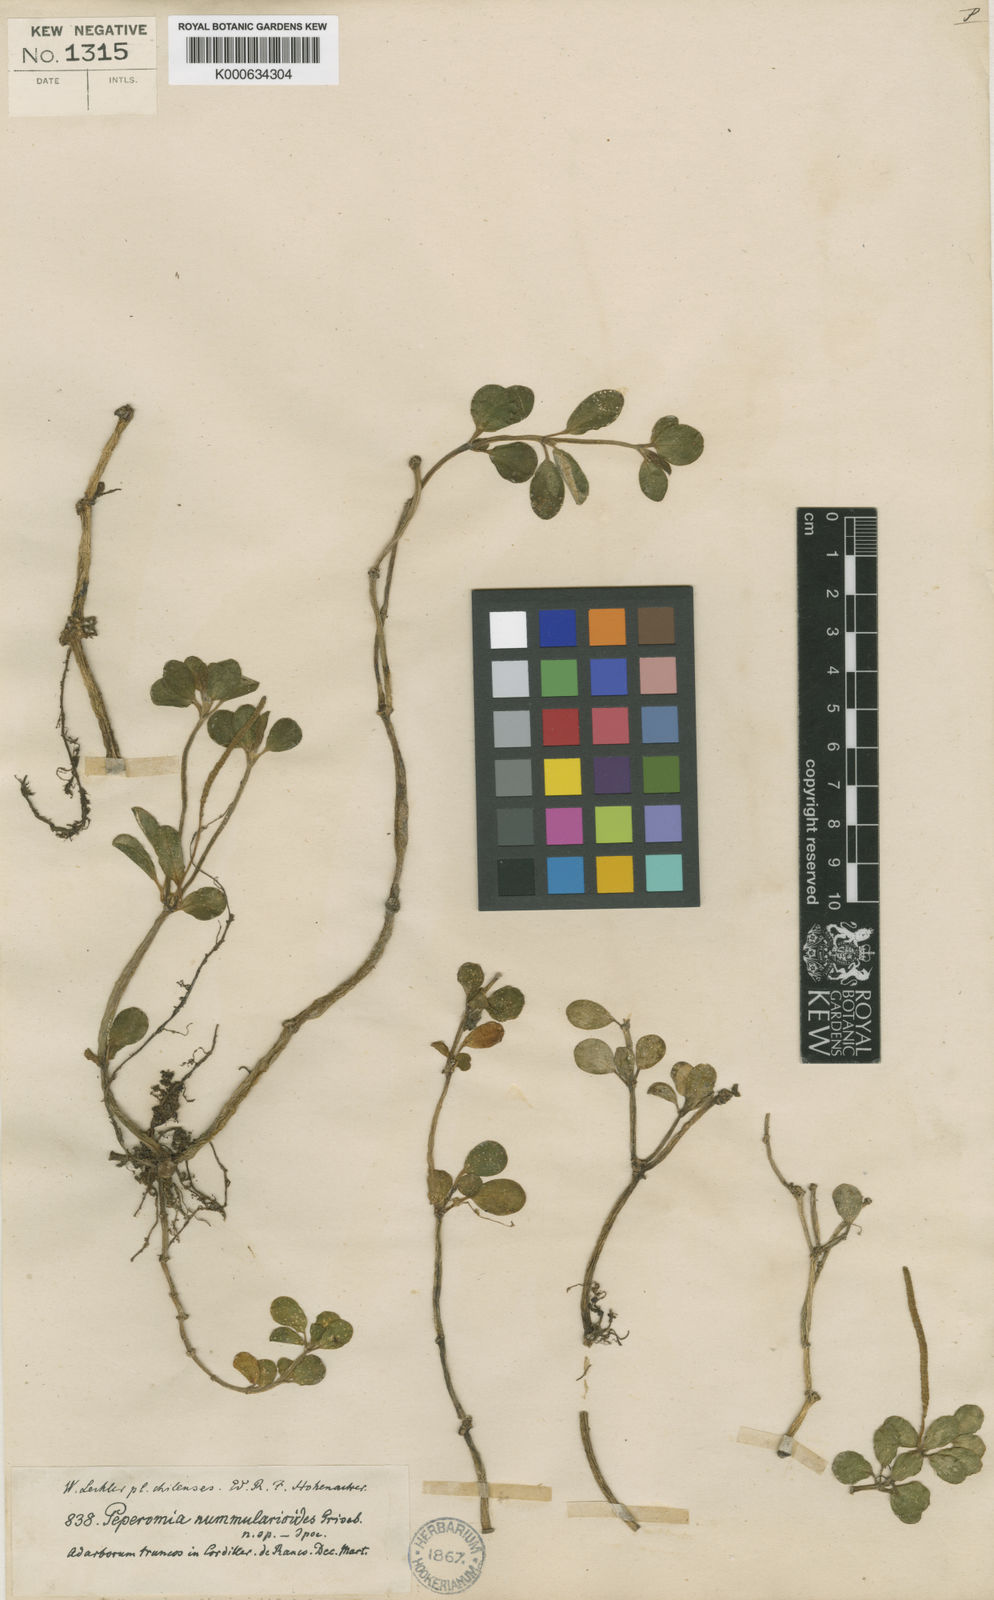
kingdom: Plantae
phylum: Tracheophyta
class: Magnoliopsida
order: Piperales
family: Piperaceae
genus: Peperomia
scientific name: Peperomia nummularioides
